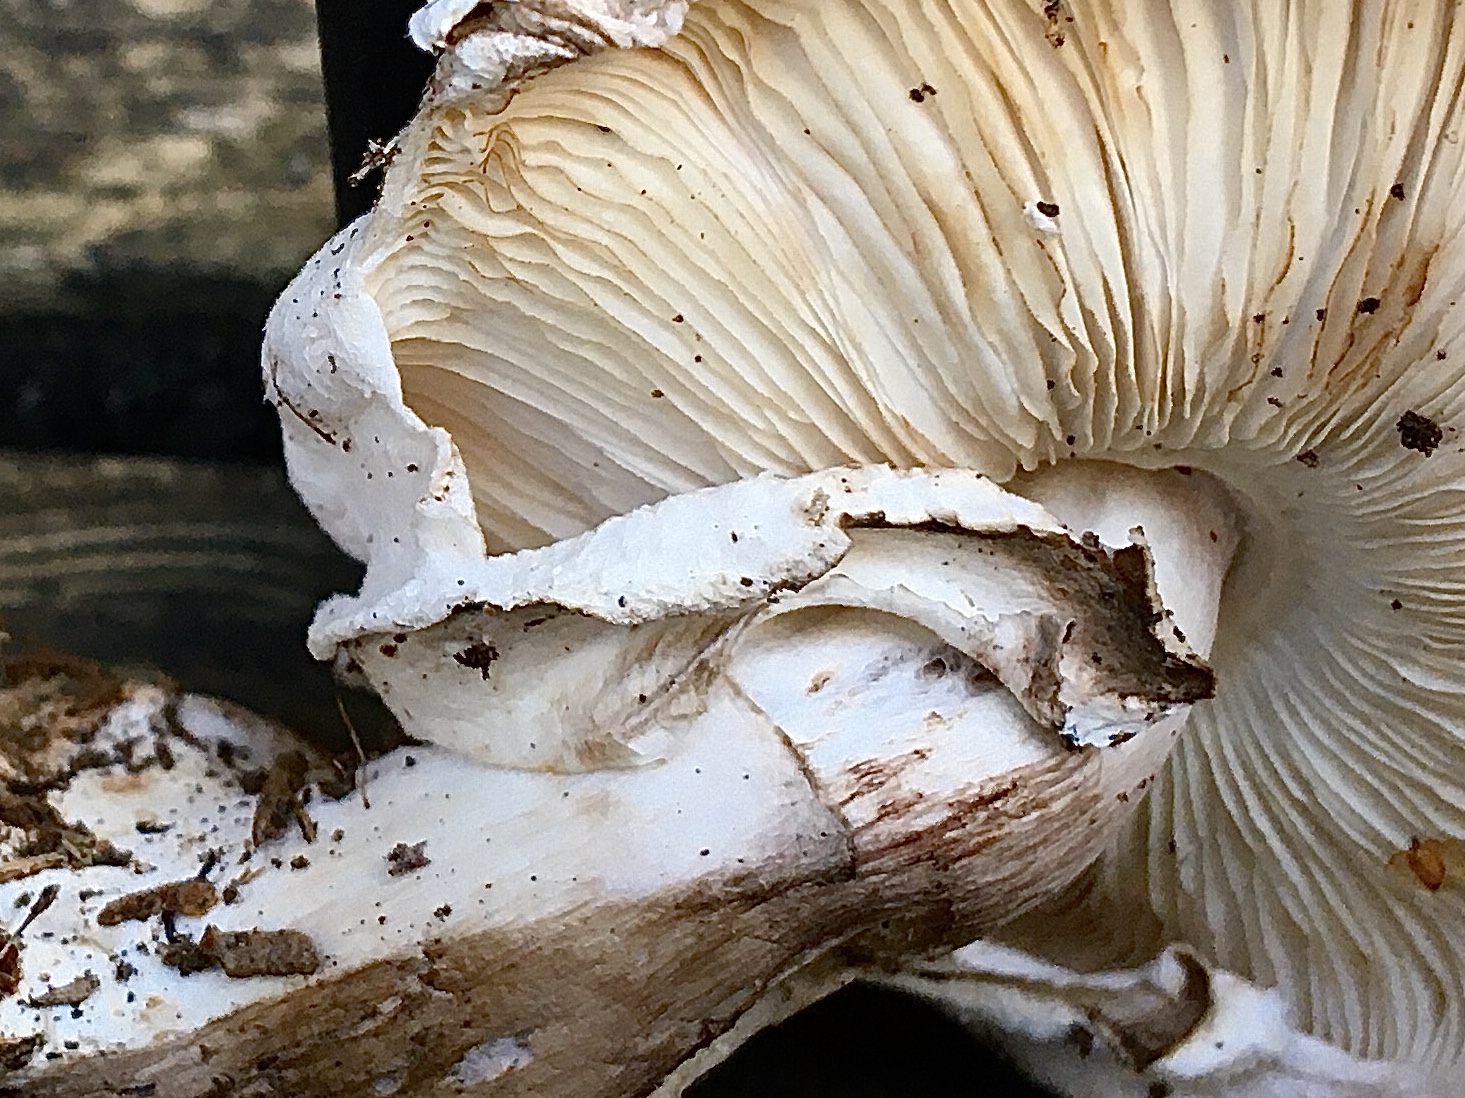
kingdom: Fungi
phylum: Basidiomycota
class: Agaricomycetes
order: Agaricales
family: Agaricaceae
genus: Chlorophyllum
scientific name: Chlorophyllum brunneum
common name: giftig rabarberhat
